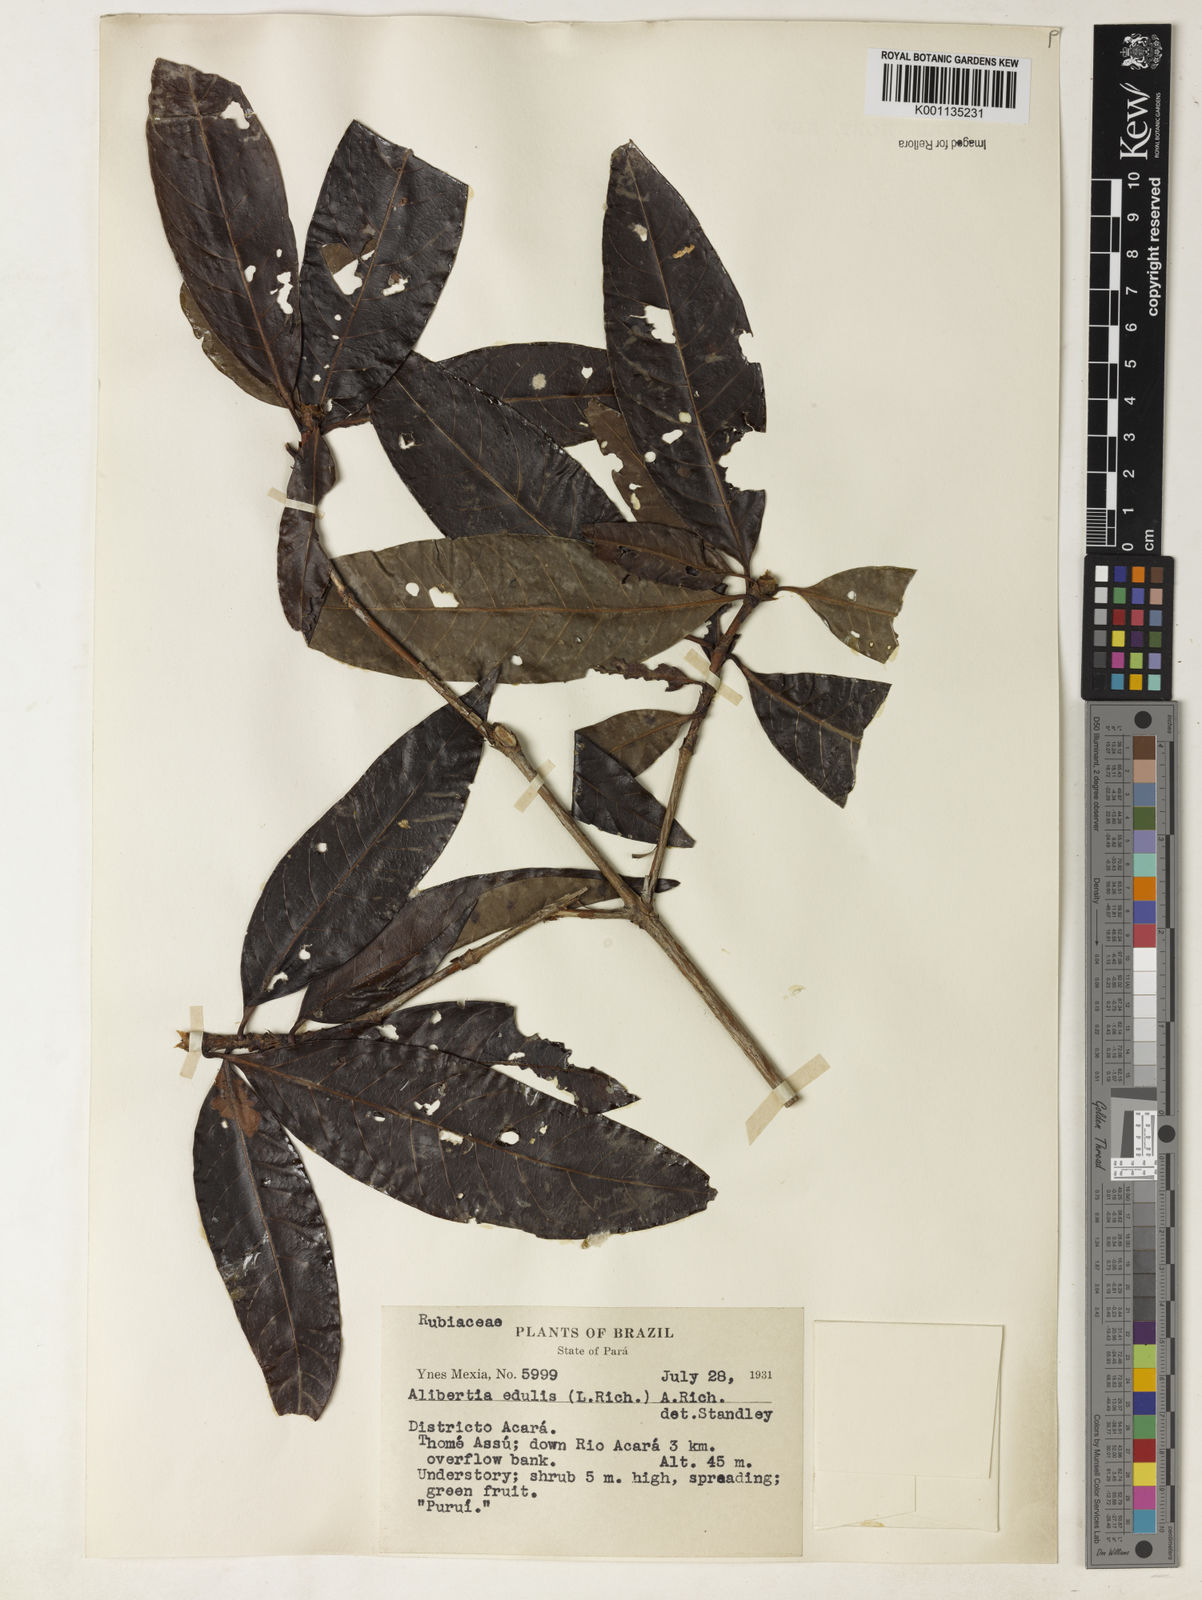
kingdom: Plantae
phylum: Tracheophyta
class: Magnoliopsida
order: Gentianales
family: Rubiaceae
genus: Alibertia
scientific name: Alibertia edulis
